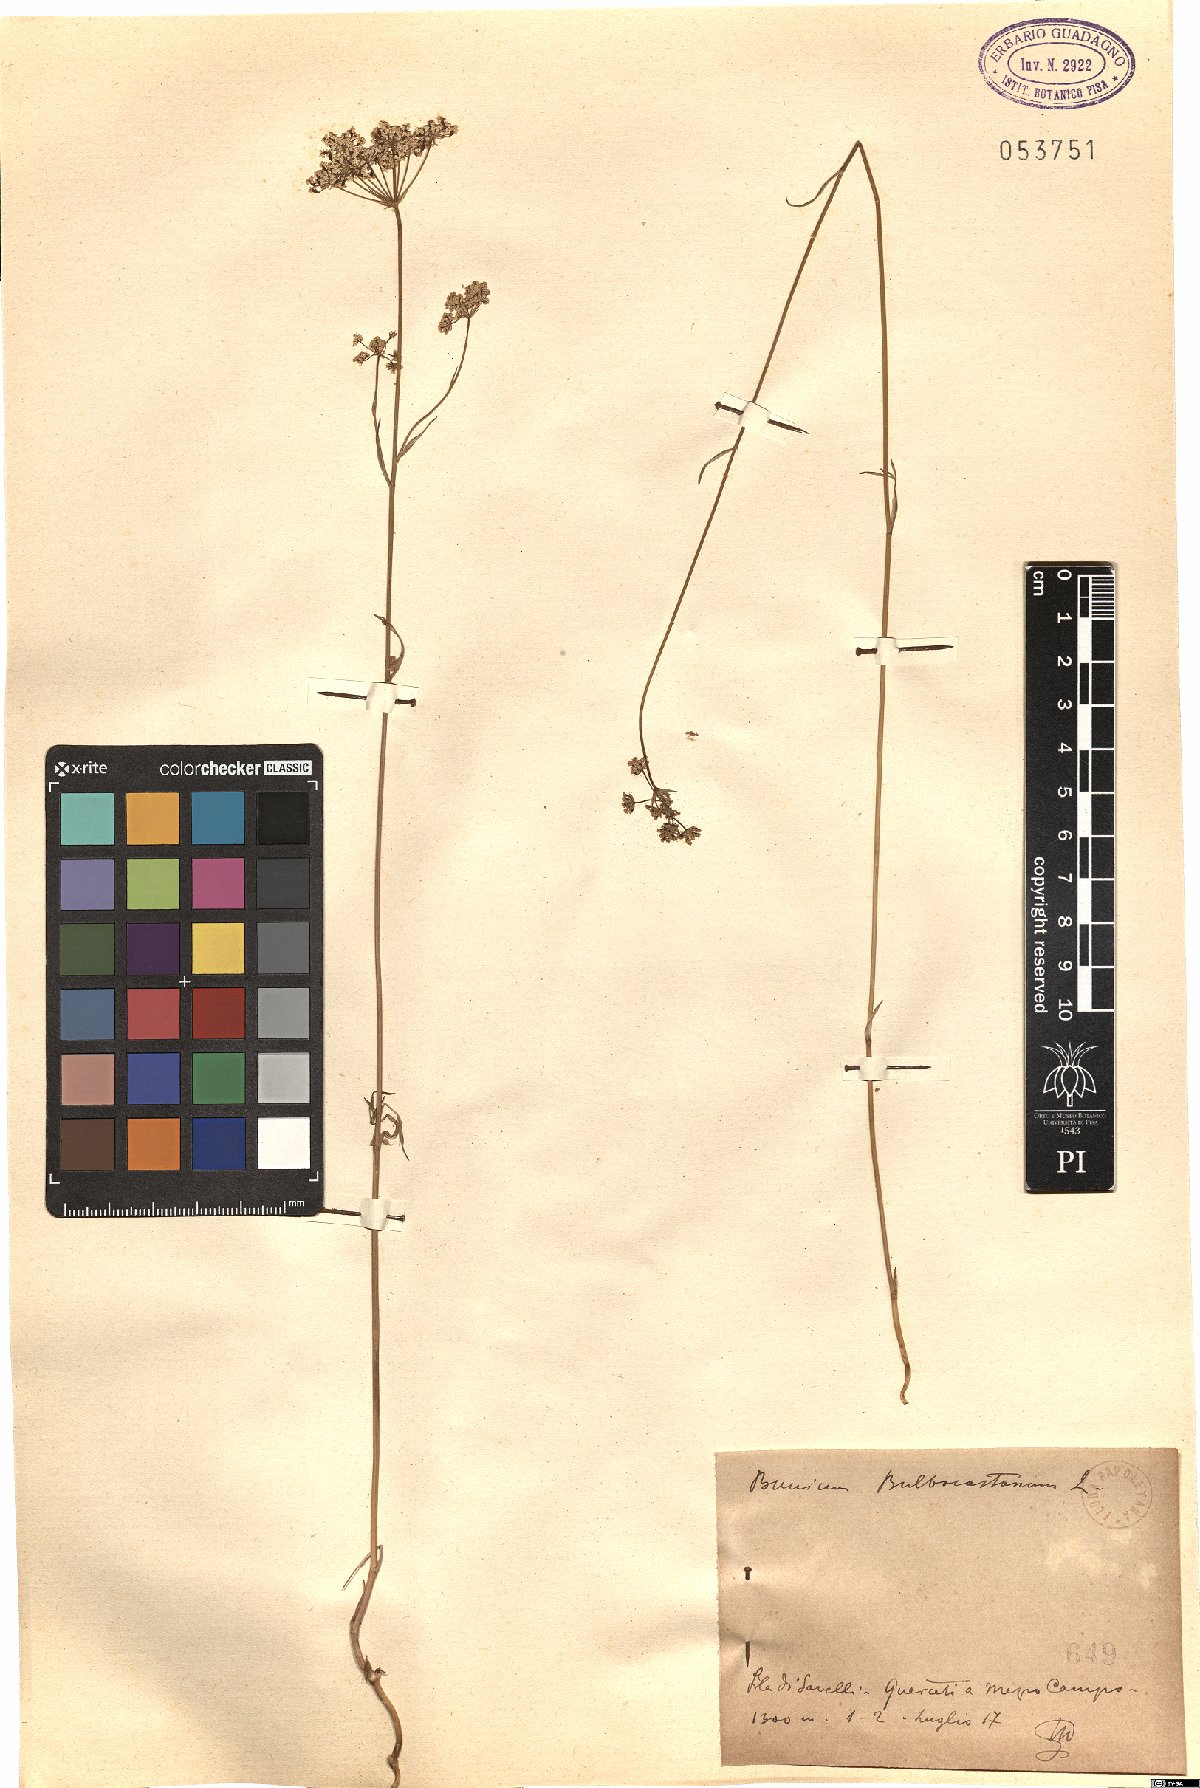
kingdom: Plantae
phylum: Tracheophyta
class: Magnoliopsida
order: Apiales
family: Apiaceae
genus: Bunium
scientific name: Bunium bulbocastanum
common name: Great pignut
